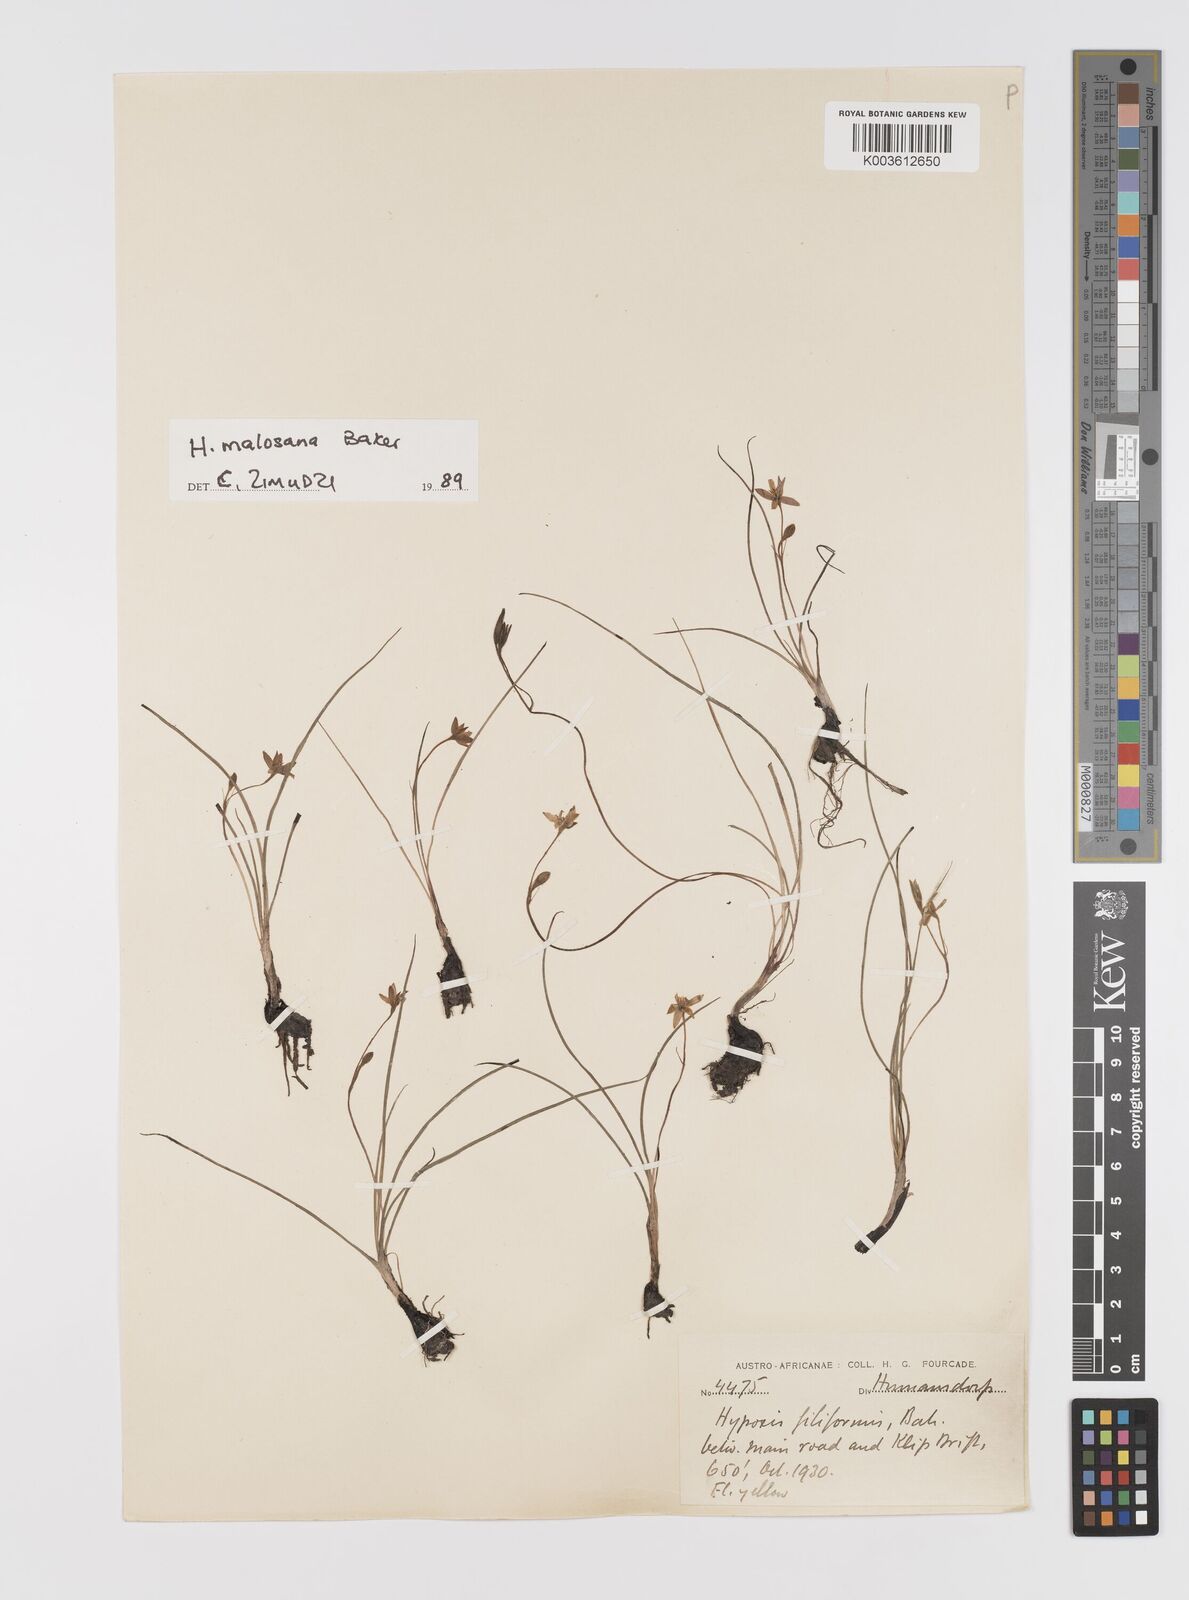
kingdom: Plantae
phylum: Tracheophyta
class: Liliopsida
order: Asparagales
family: Hypoxidaceae
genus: Hypoxis
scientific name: Hypoxis filiformis
